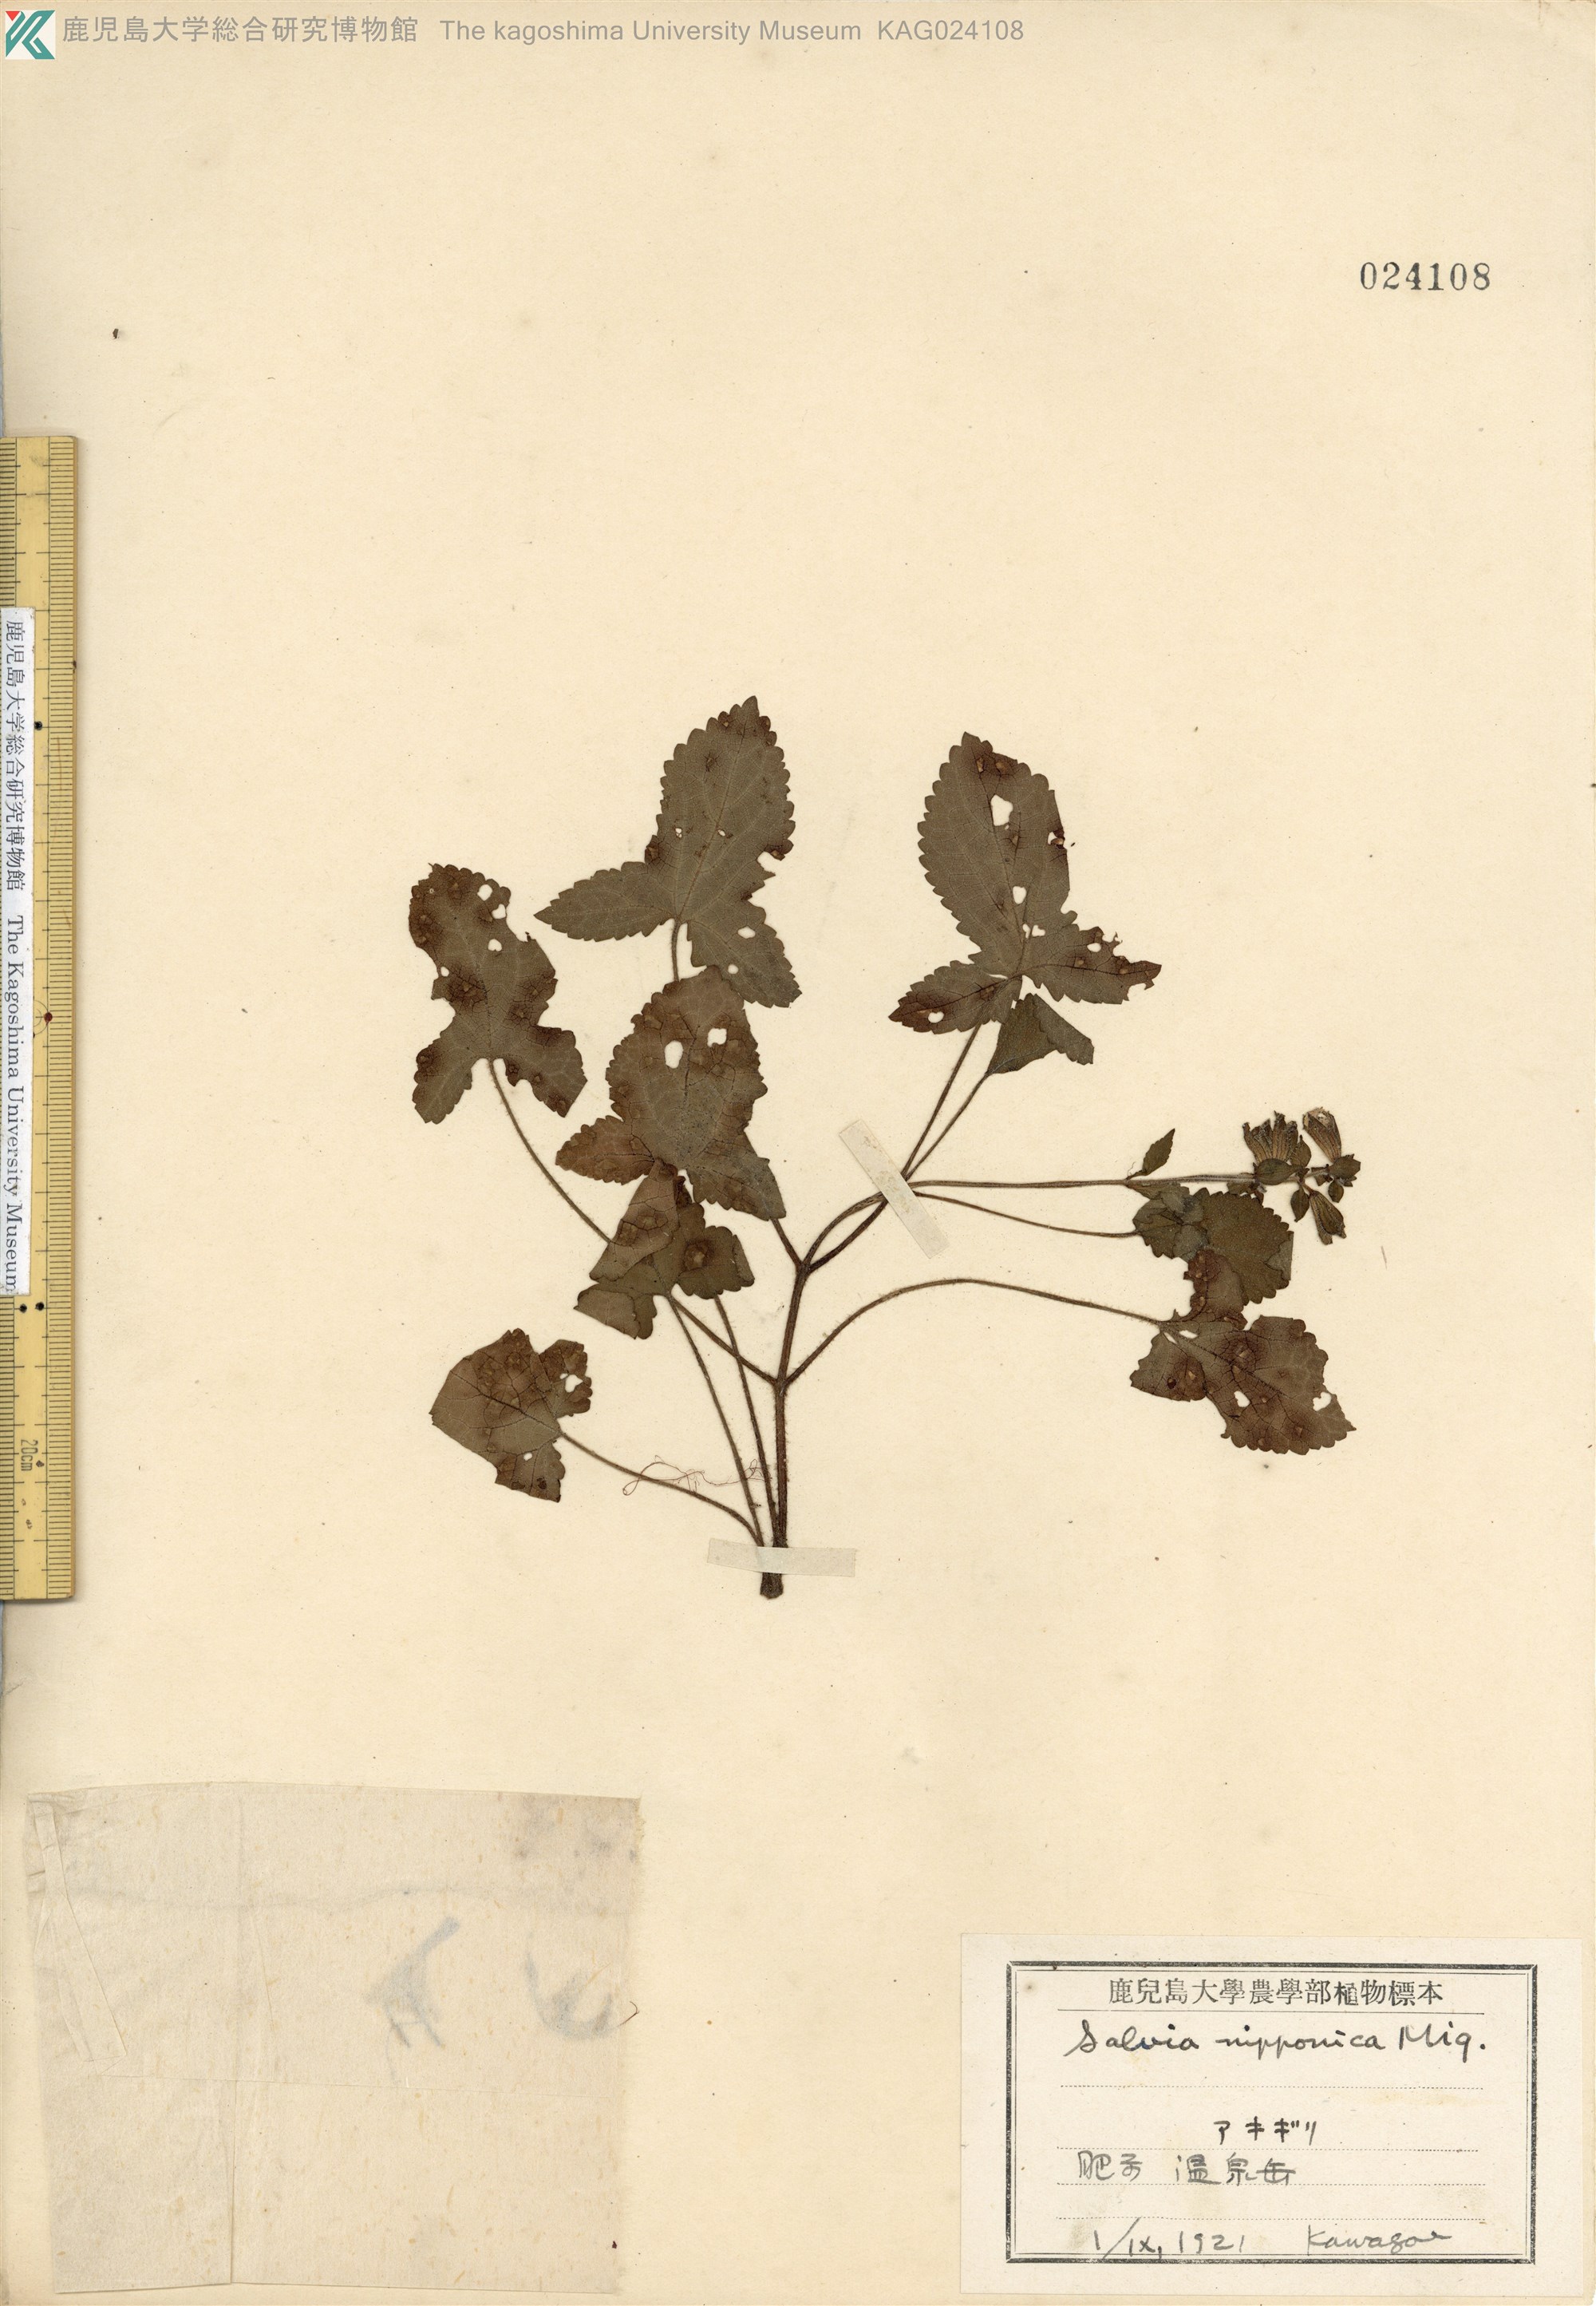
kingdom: Plantae
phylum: Tracheophyta
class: Magnoliopsida
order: Lamiales
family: Lamiaceae
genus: Salvia
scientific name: Salvia nipponica
